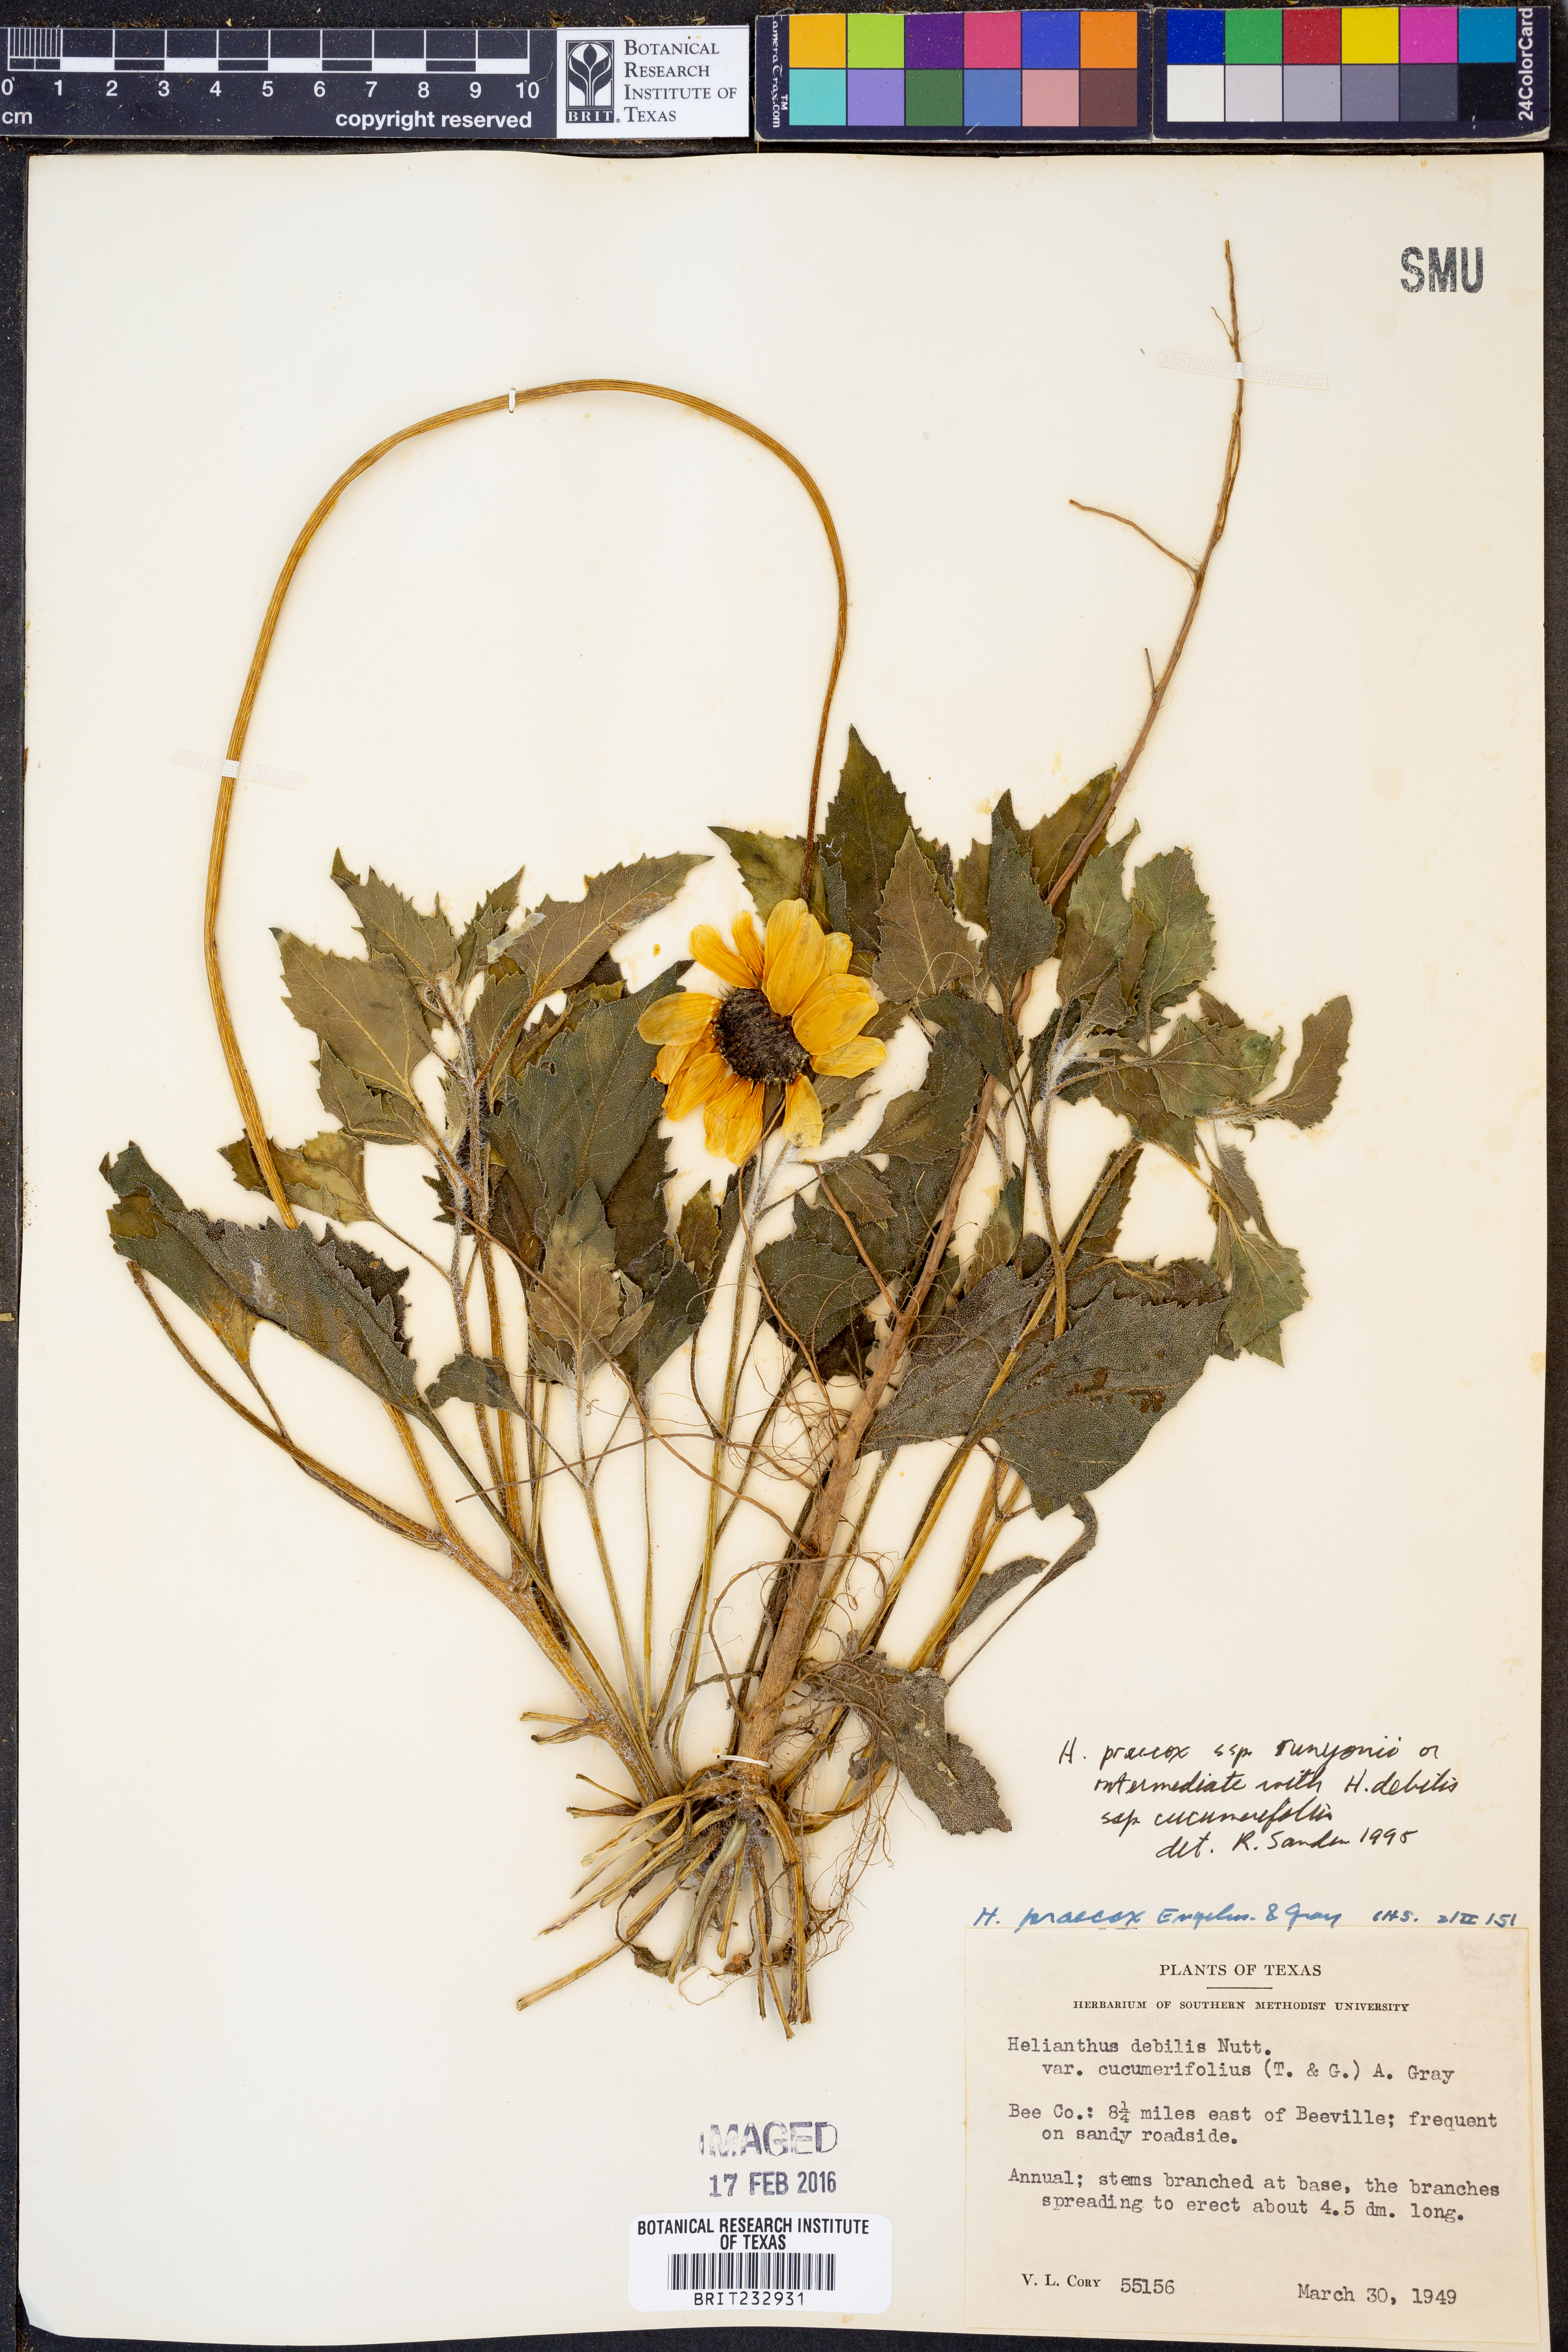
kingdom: Plantae
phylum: Tracheophyta
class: Magnoliopsida
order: Asterales
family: Asteraceae
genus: Helianthus
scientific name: Helianthus praecox
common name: Texas sunflower
